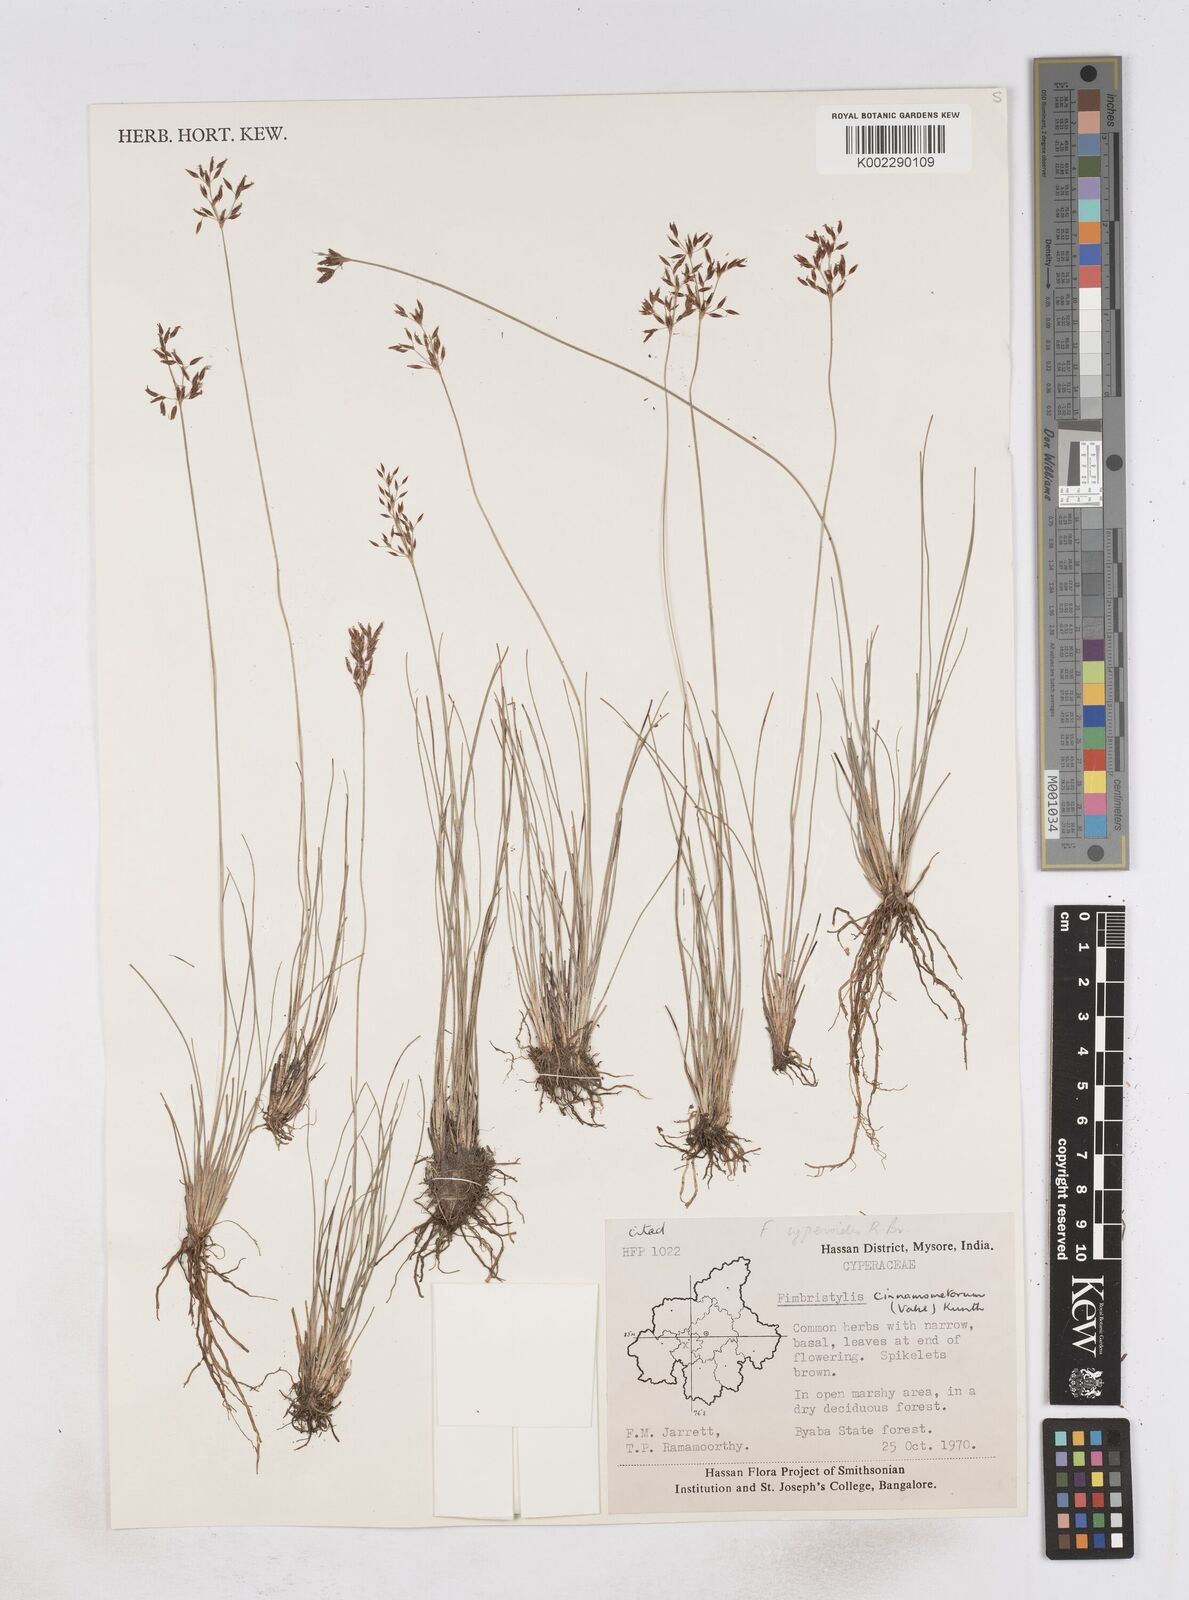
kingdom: Plantae
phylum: Tracheophyta
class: Liliopsida
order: Poales
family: Cyperaceae
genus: Fimbristylis
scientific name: Fimbristylis cinnamometorum
